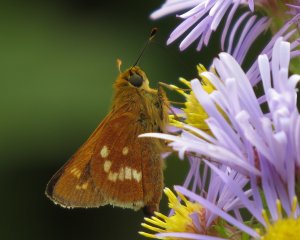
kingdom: Animalia
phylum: Arthropoda
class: Insecta
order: Lepidoptera
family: Hesperiidae
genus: Hesperia
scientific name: Hesperia leonardus
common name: Leonard's Skipper
